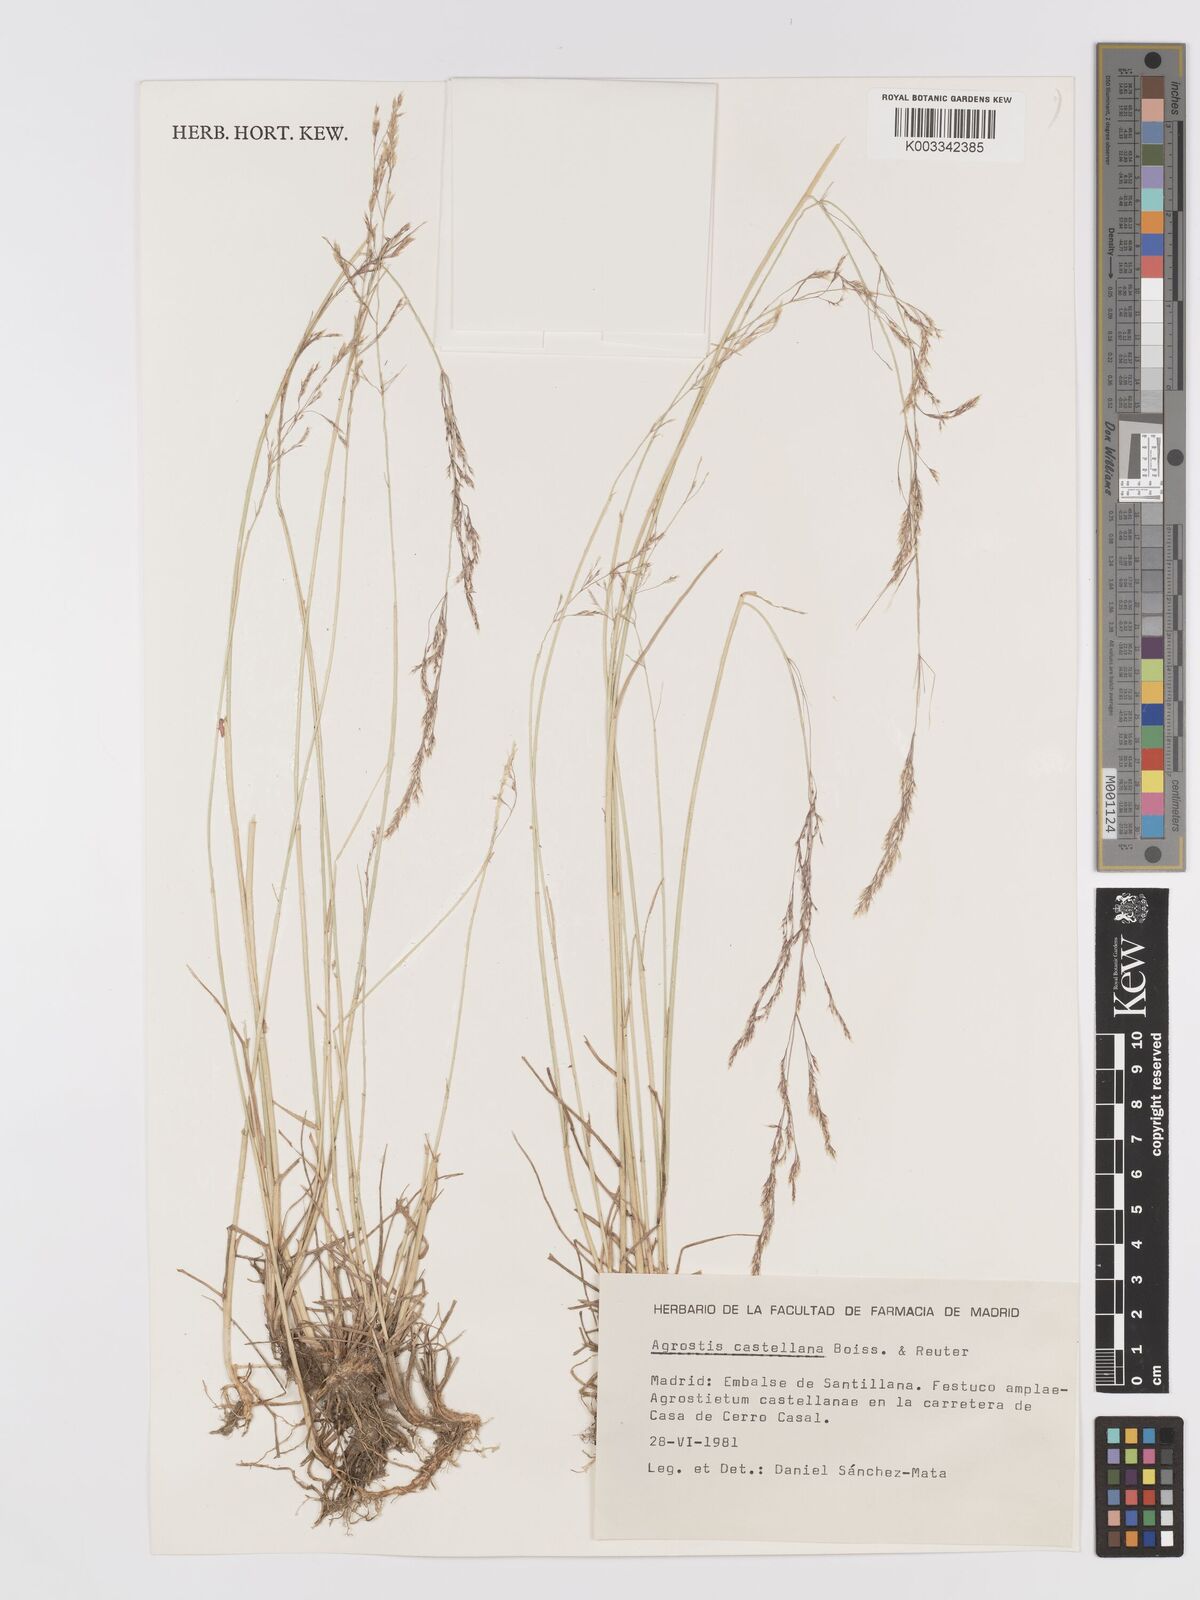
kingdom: Plantae
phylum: Tracheophyta
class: Liliopsida
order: Poales
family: Poaceae
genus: Agrostis
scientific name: Agrostis castriferrei
